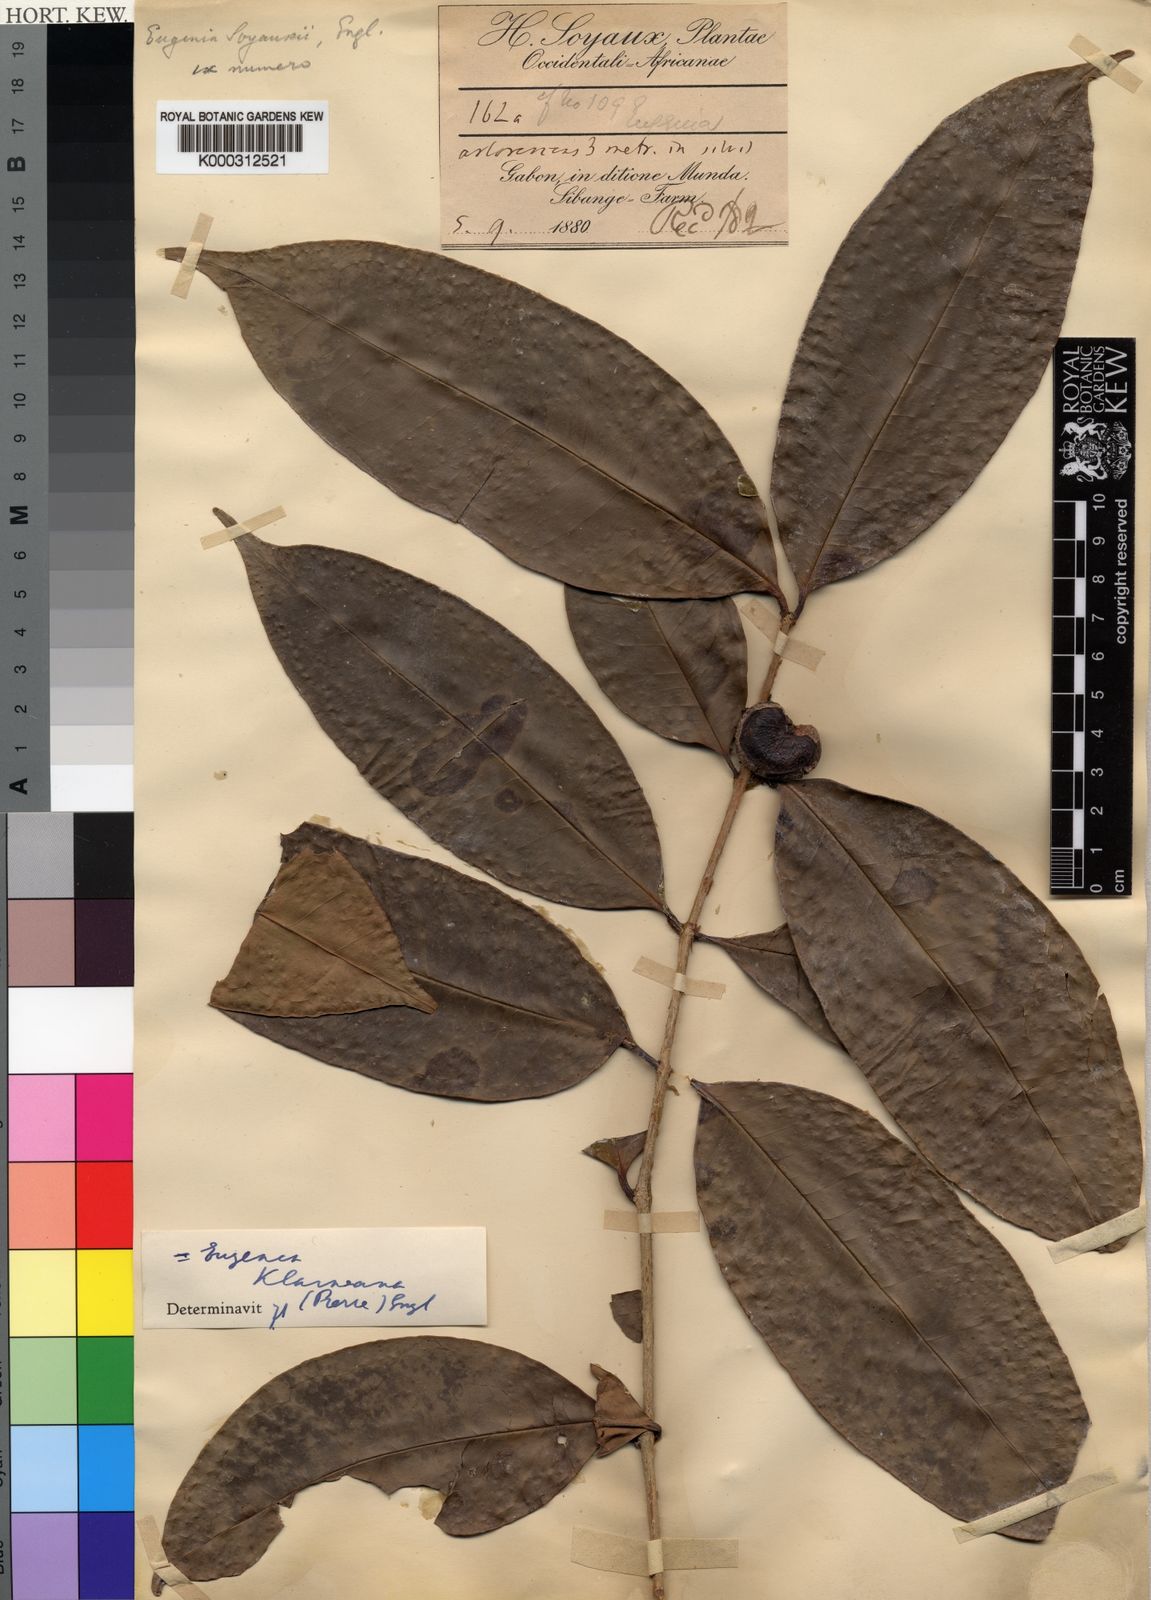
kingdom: Plantae
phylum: Tracheophyta
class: Magnoliopsida
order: Myrtales
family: Myrtaceae
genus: Eugenia
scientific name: Eugenia klaineana
